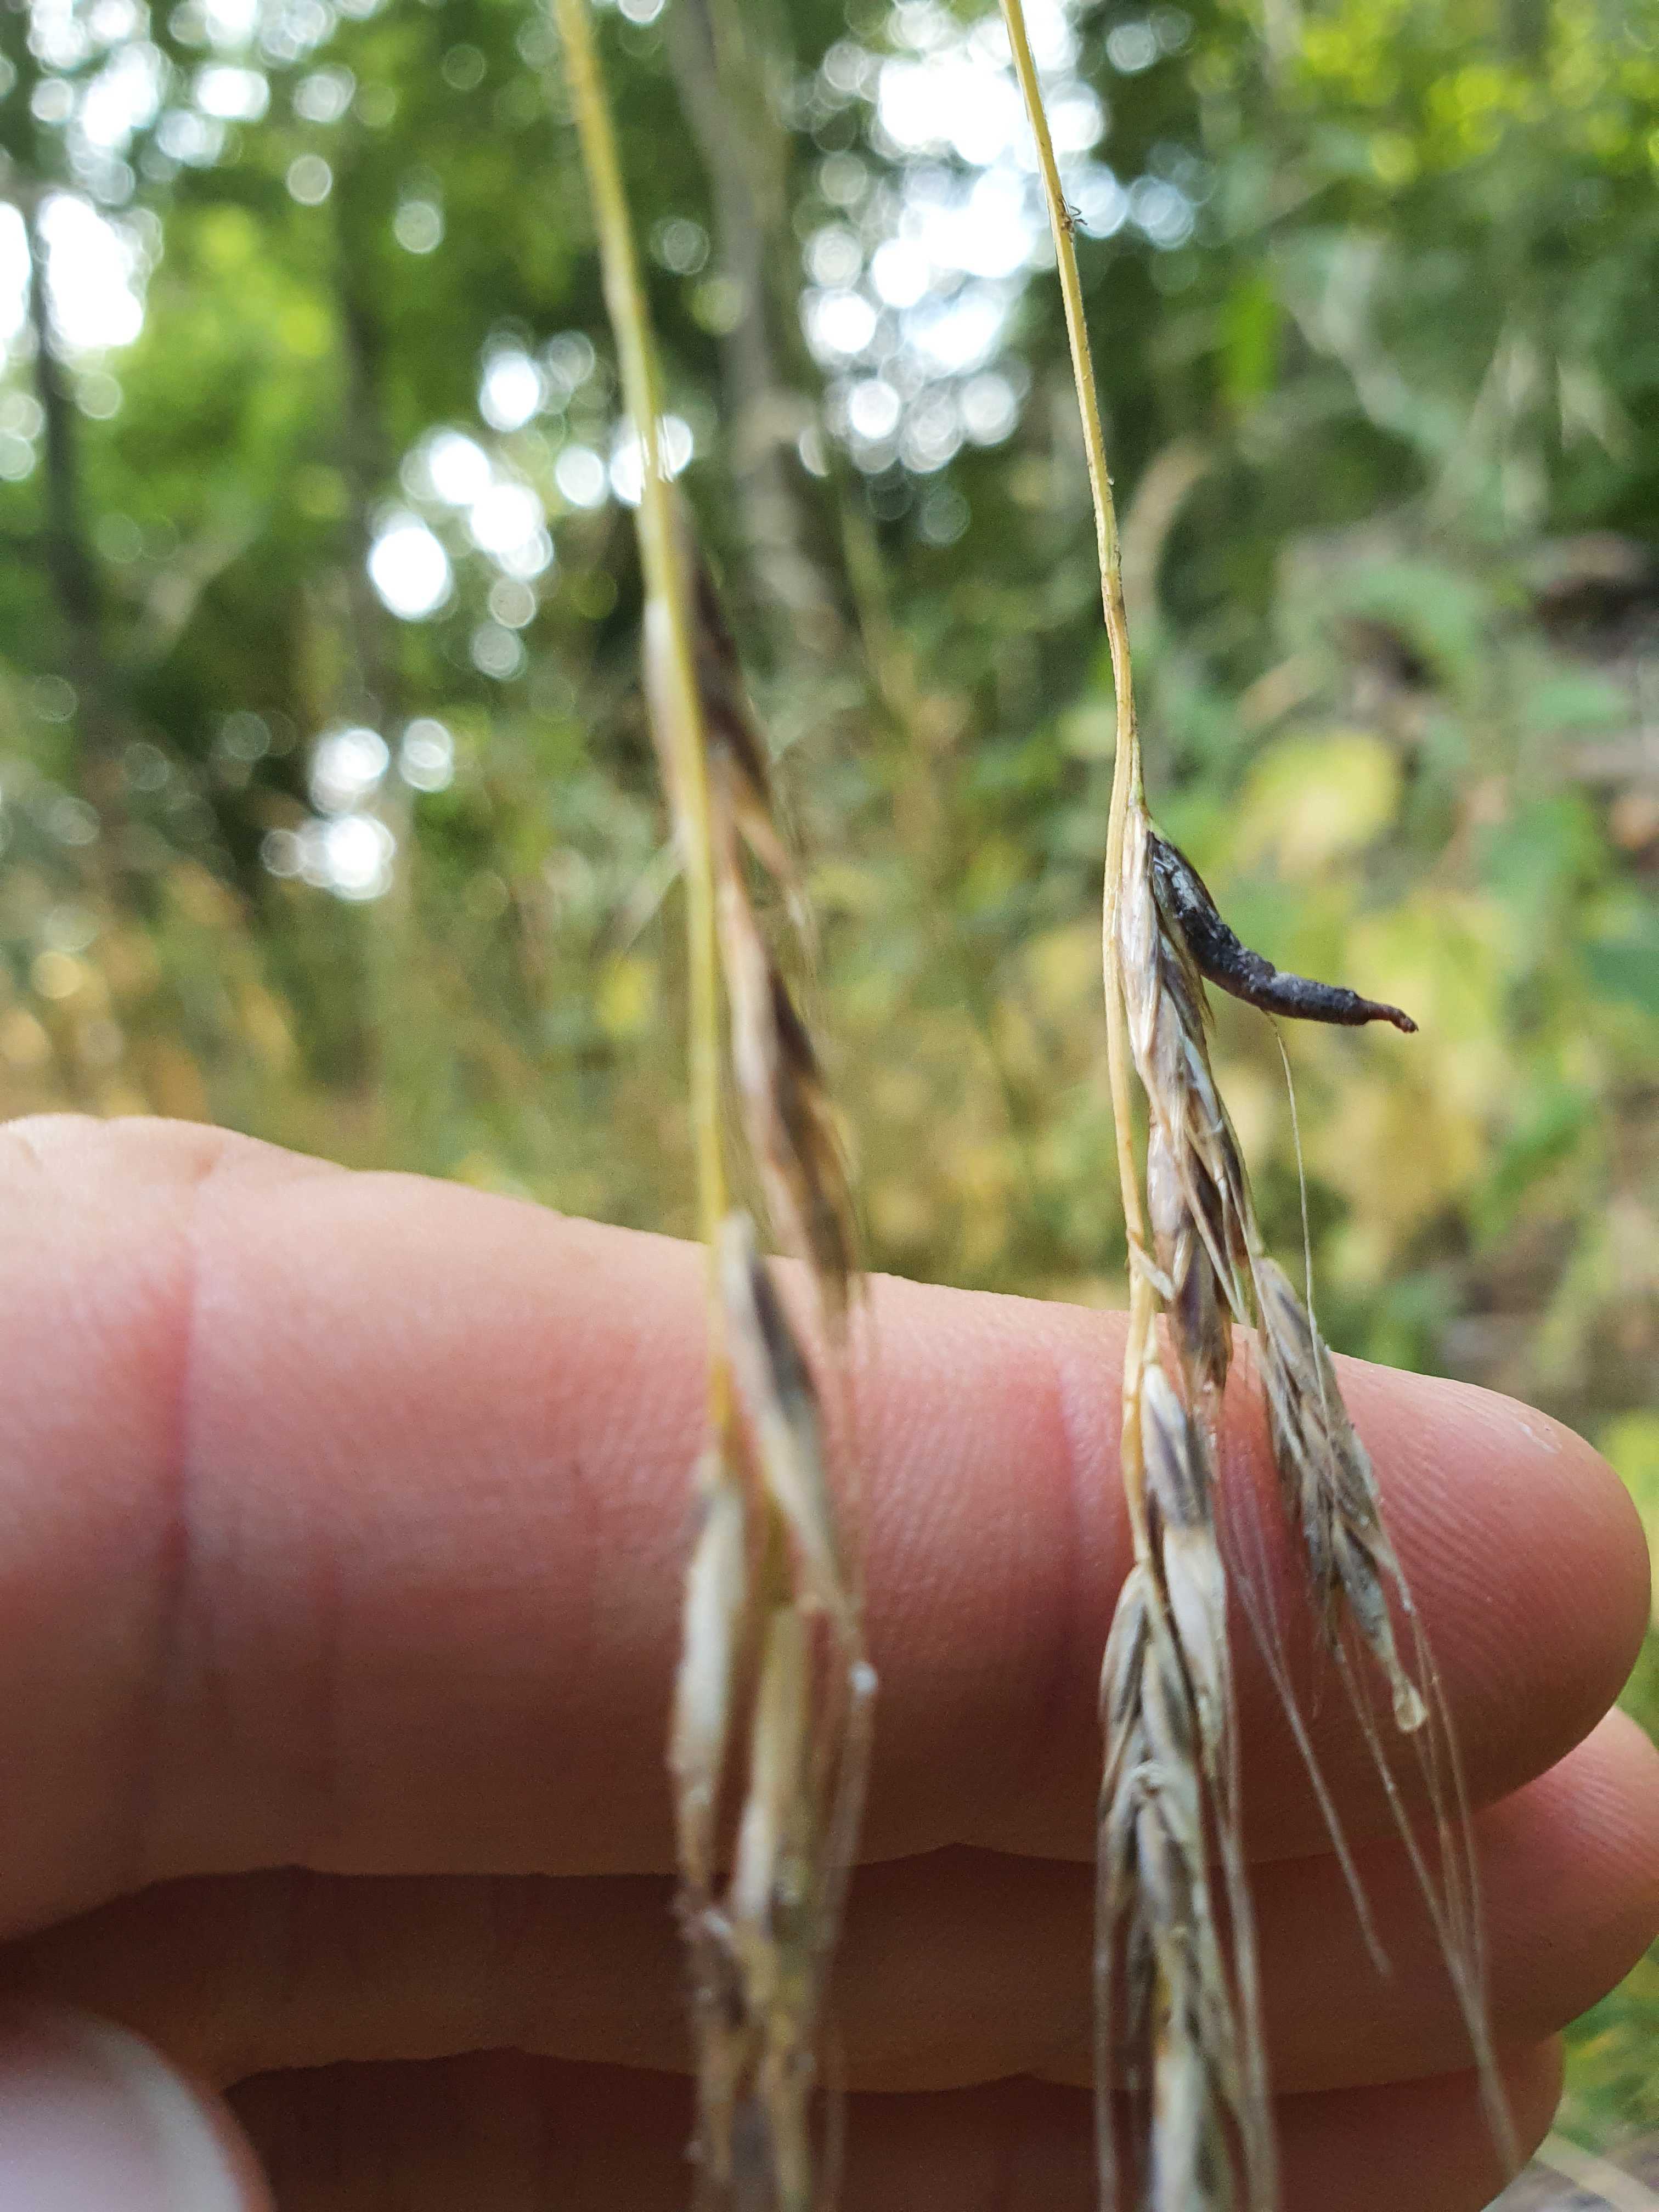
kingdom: Fungi
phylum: Ascomycota
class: Sordariomycetes
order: Hypocreales
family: Clavicipitaceae
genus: Claviceps
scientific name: Claviceps purpurea
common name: almindelig meldrøjer
